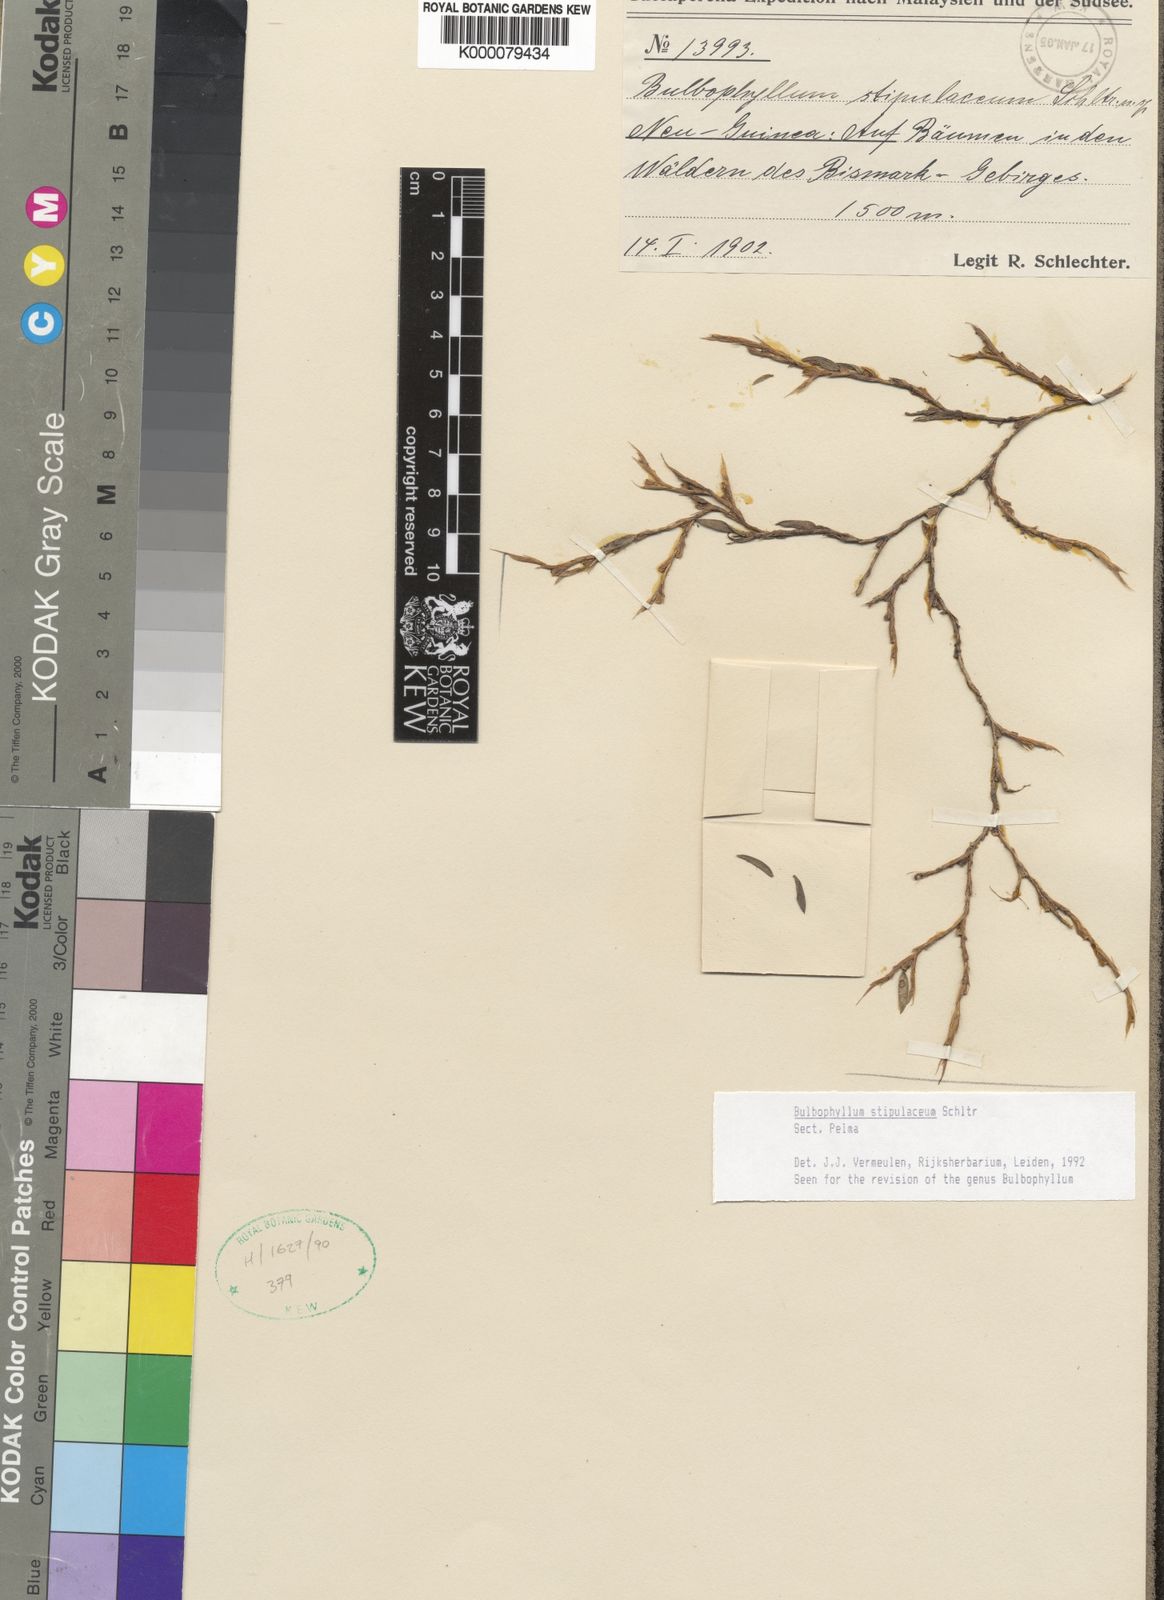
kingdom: Plantae
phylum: Tracheophyta
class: Liliopsida
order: Asparagales
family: Orchidaceae
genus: Bulbophyllum
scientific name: Bulbophyllum
